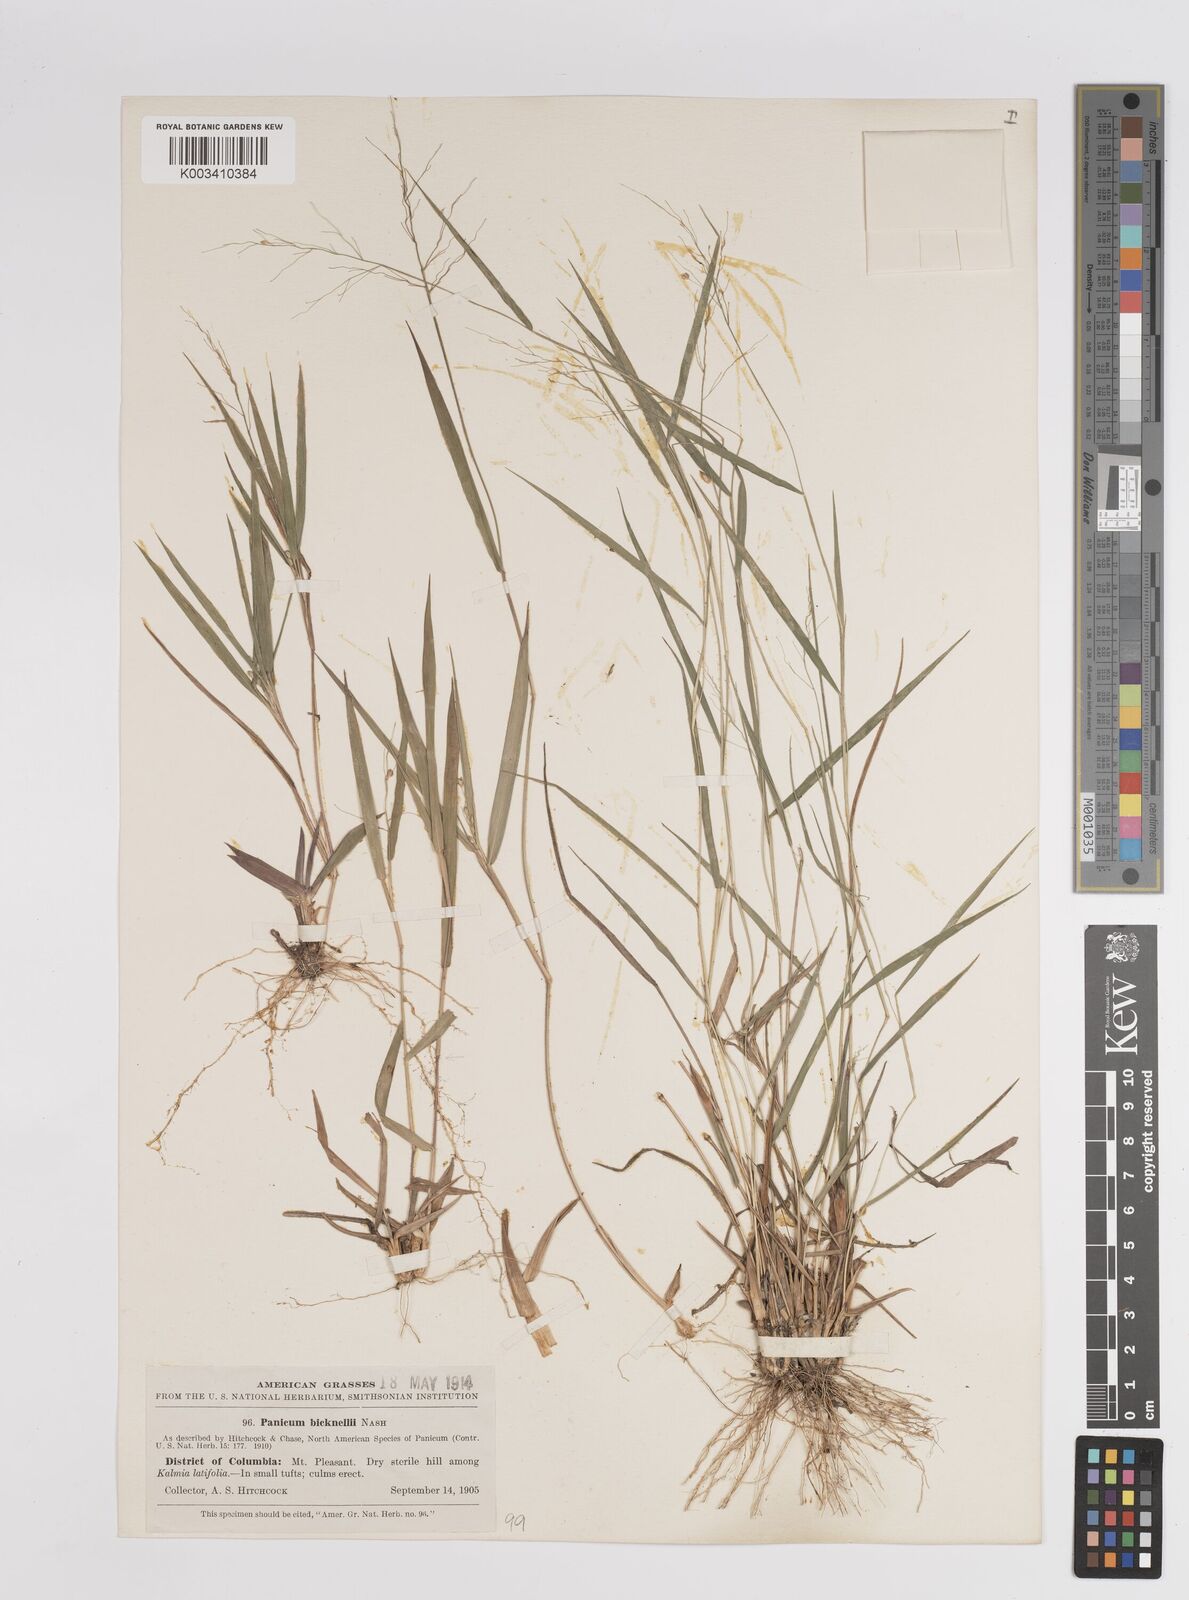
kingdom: Plantae
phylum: Tracheophyta
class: Liliopsida
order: Poales
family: Poaceae
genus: Dichanthelium
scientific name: Dichanthelium boreale
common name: Northern panicgrass
